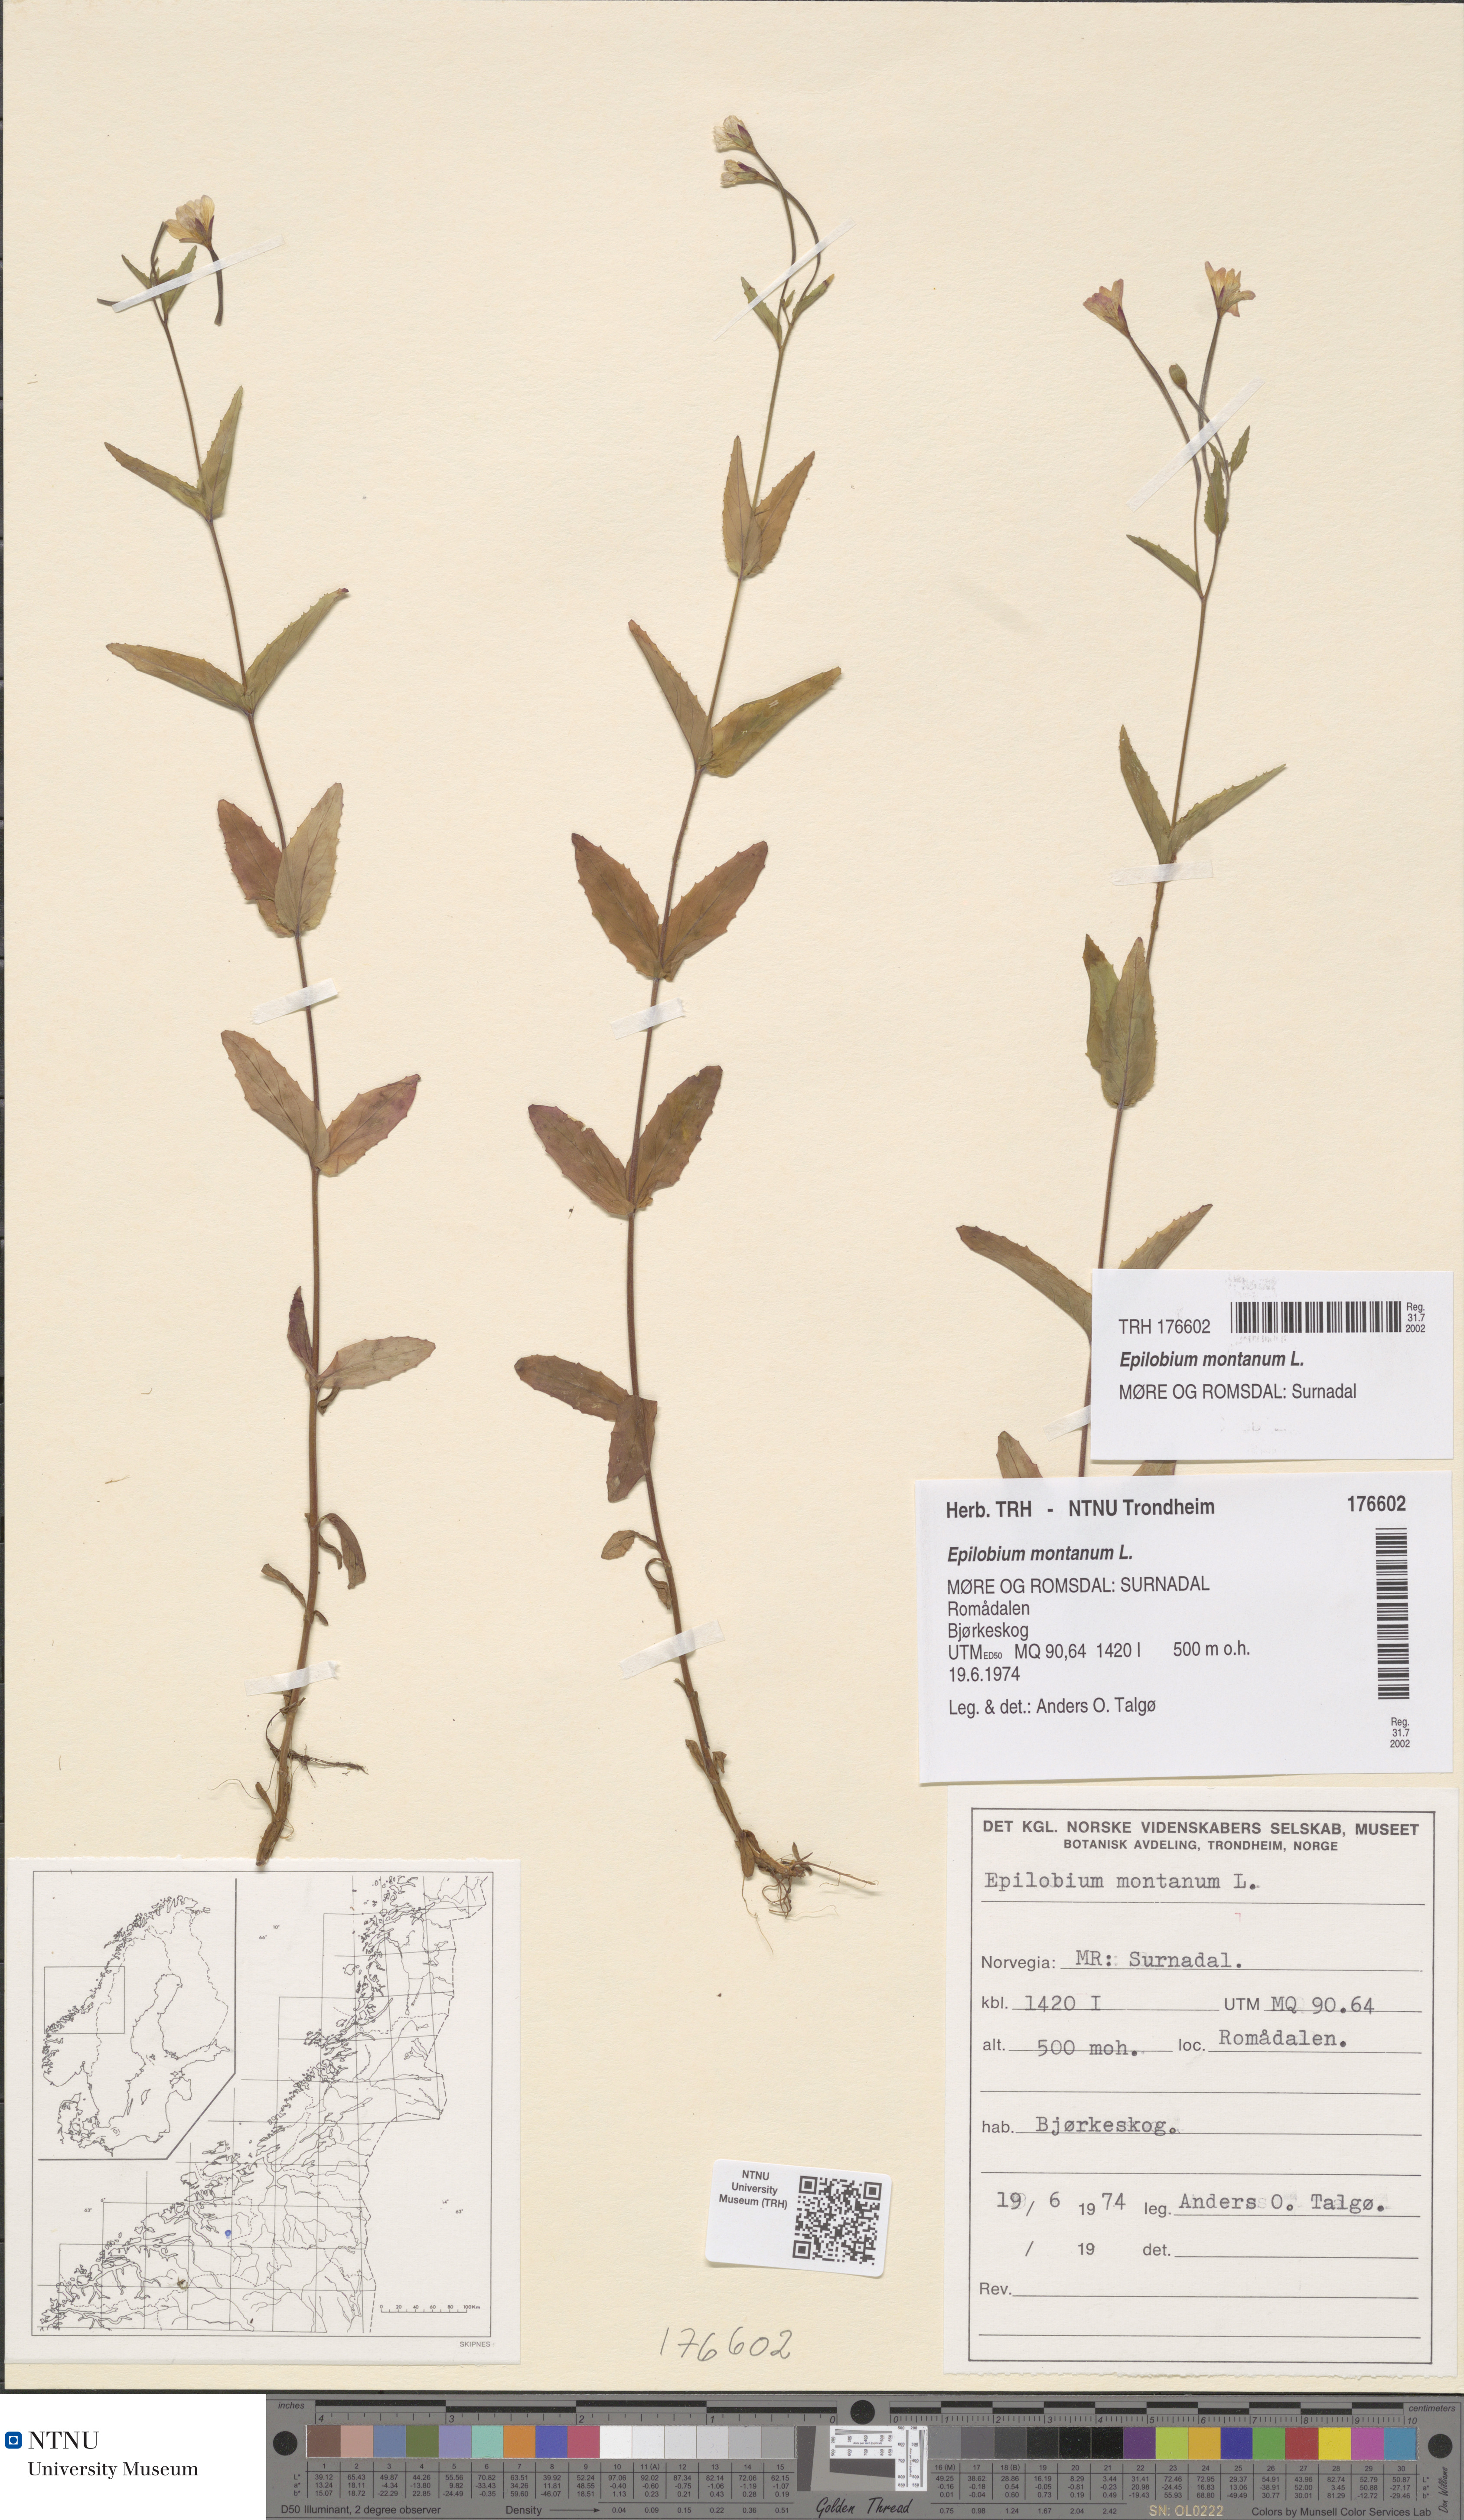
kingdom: Plantae
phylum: Tracheophyta
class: Magnoliopsida
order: Myrtales
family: Onagraceae
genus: Epilobium
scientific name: Epilobium montanum
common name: Broad-leaved willowherb
